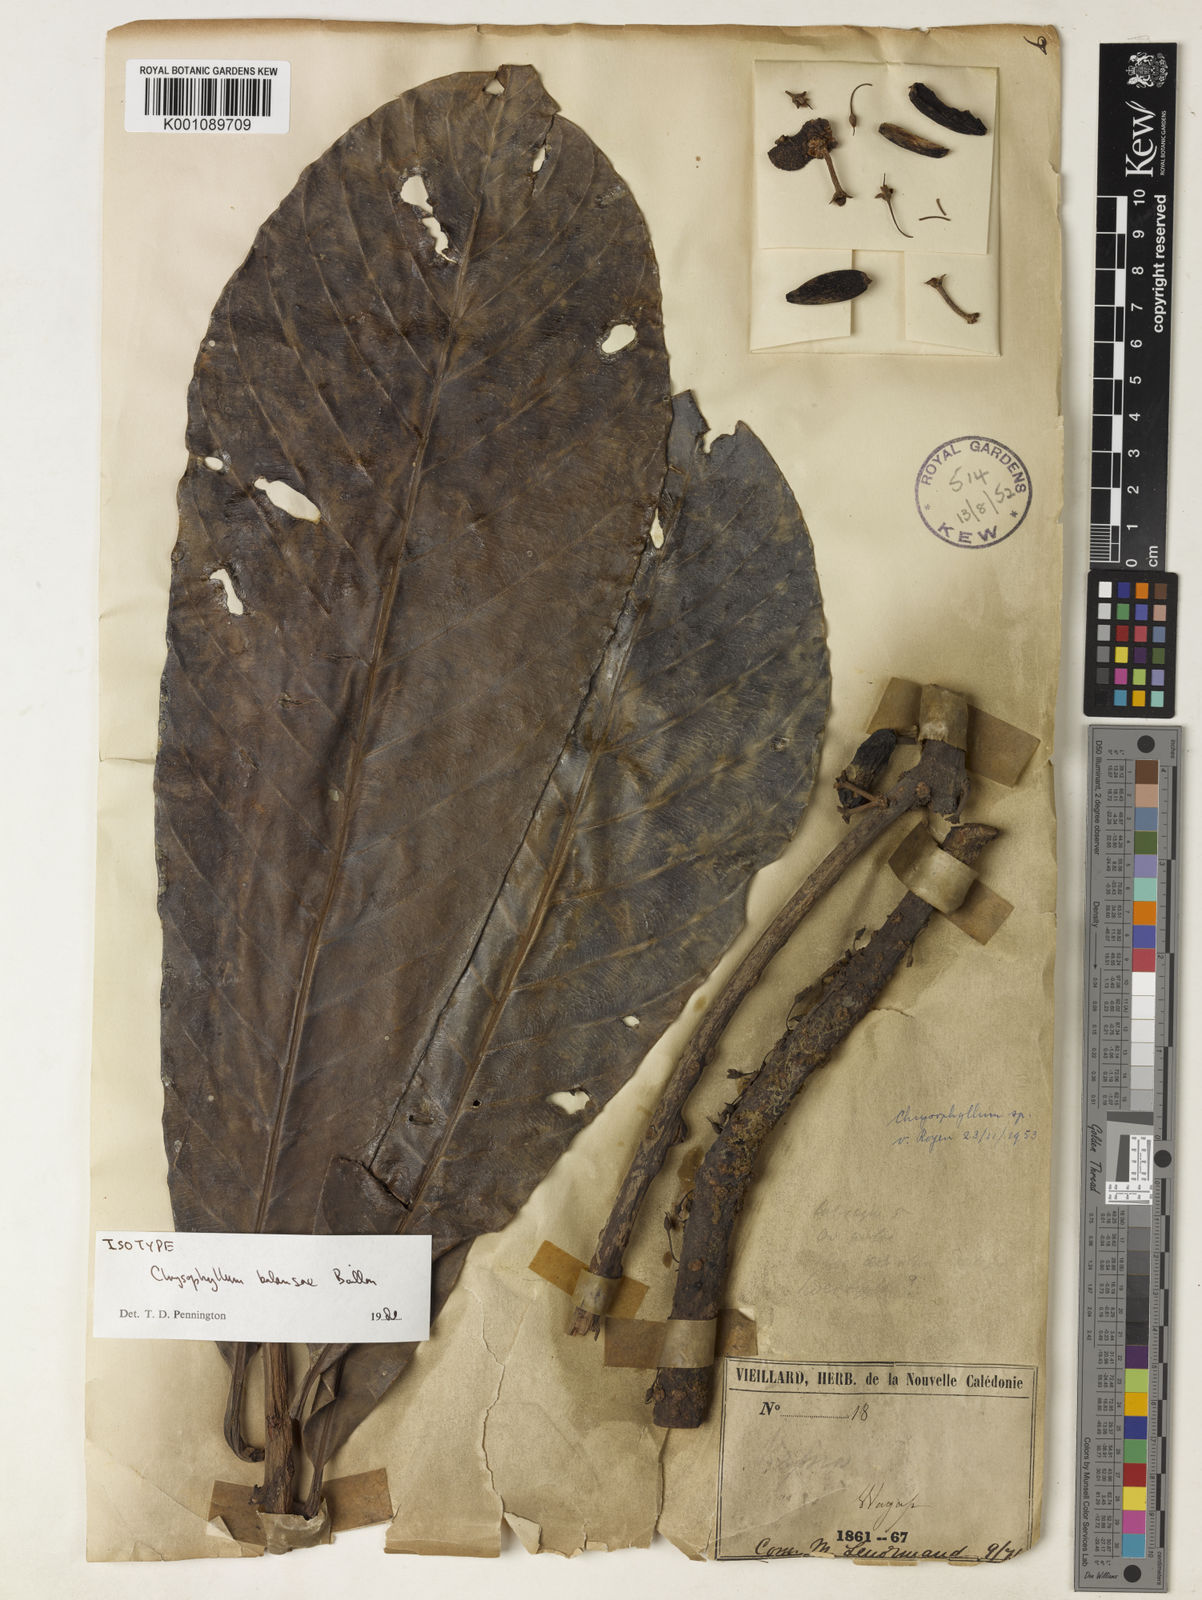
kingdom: Plantae
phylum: Tracheophyta
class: Magnoliopsida
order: Ericales
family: Sapotaceae
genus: Pycnandra
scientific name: Pycnandra balansae
